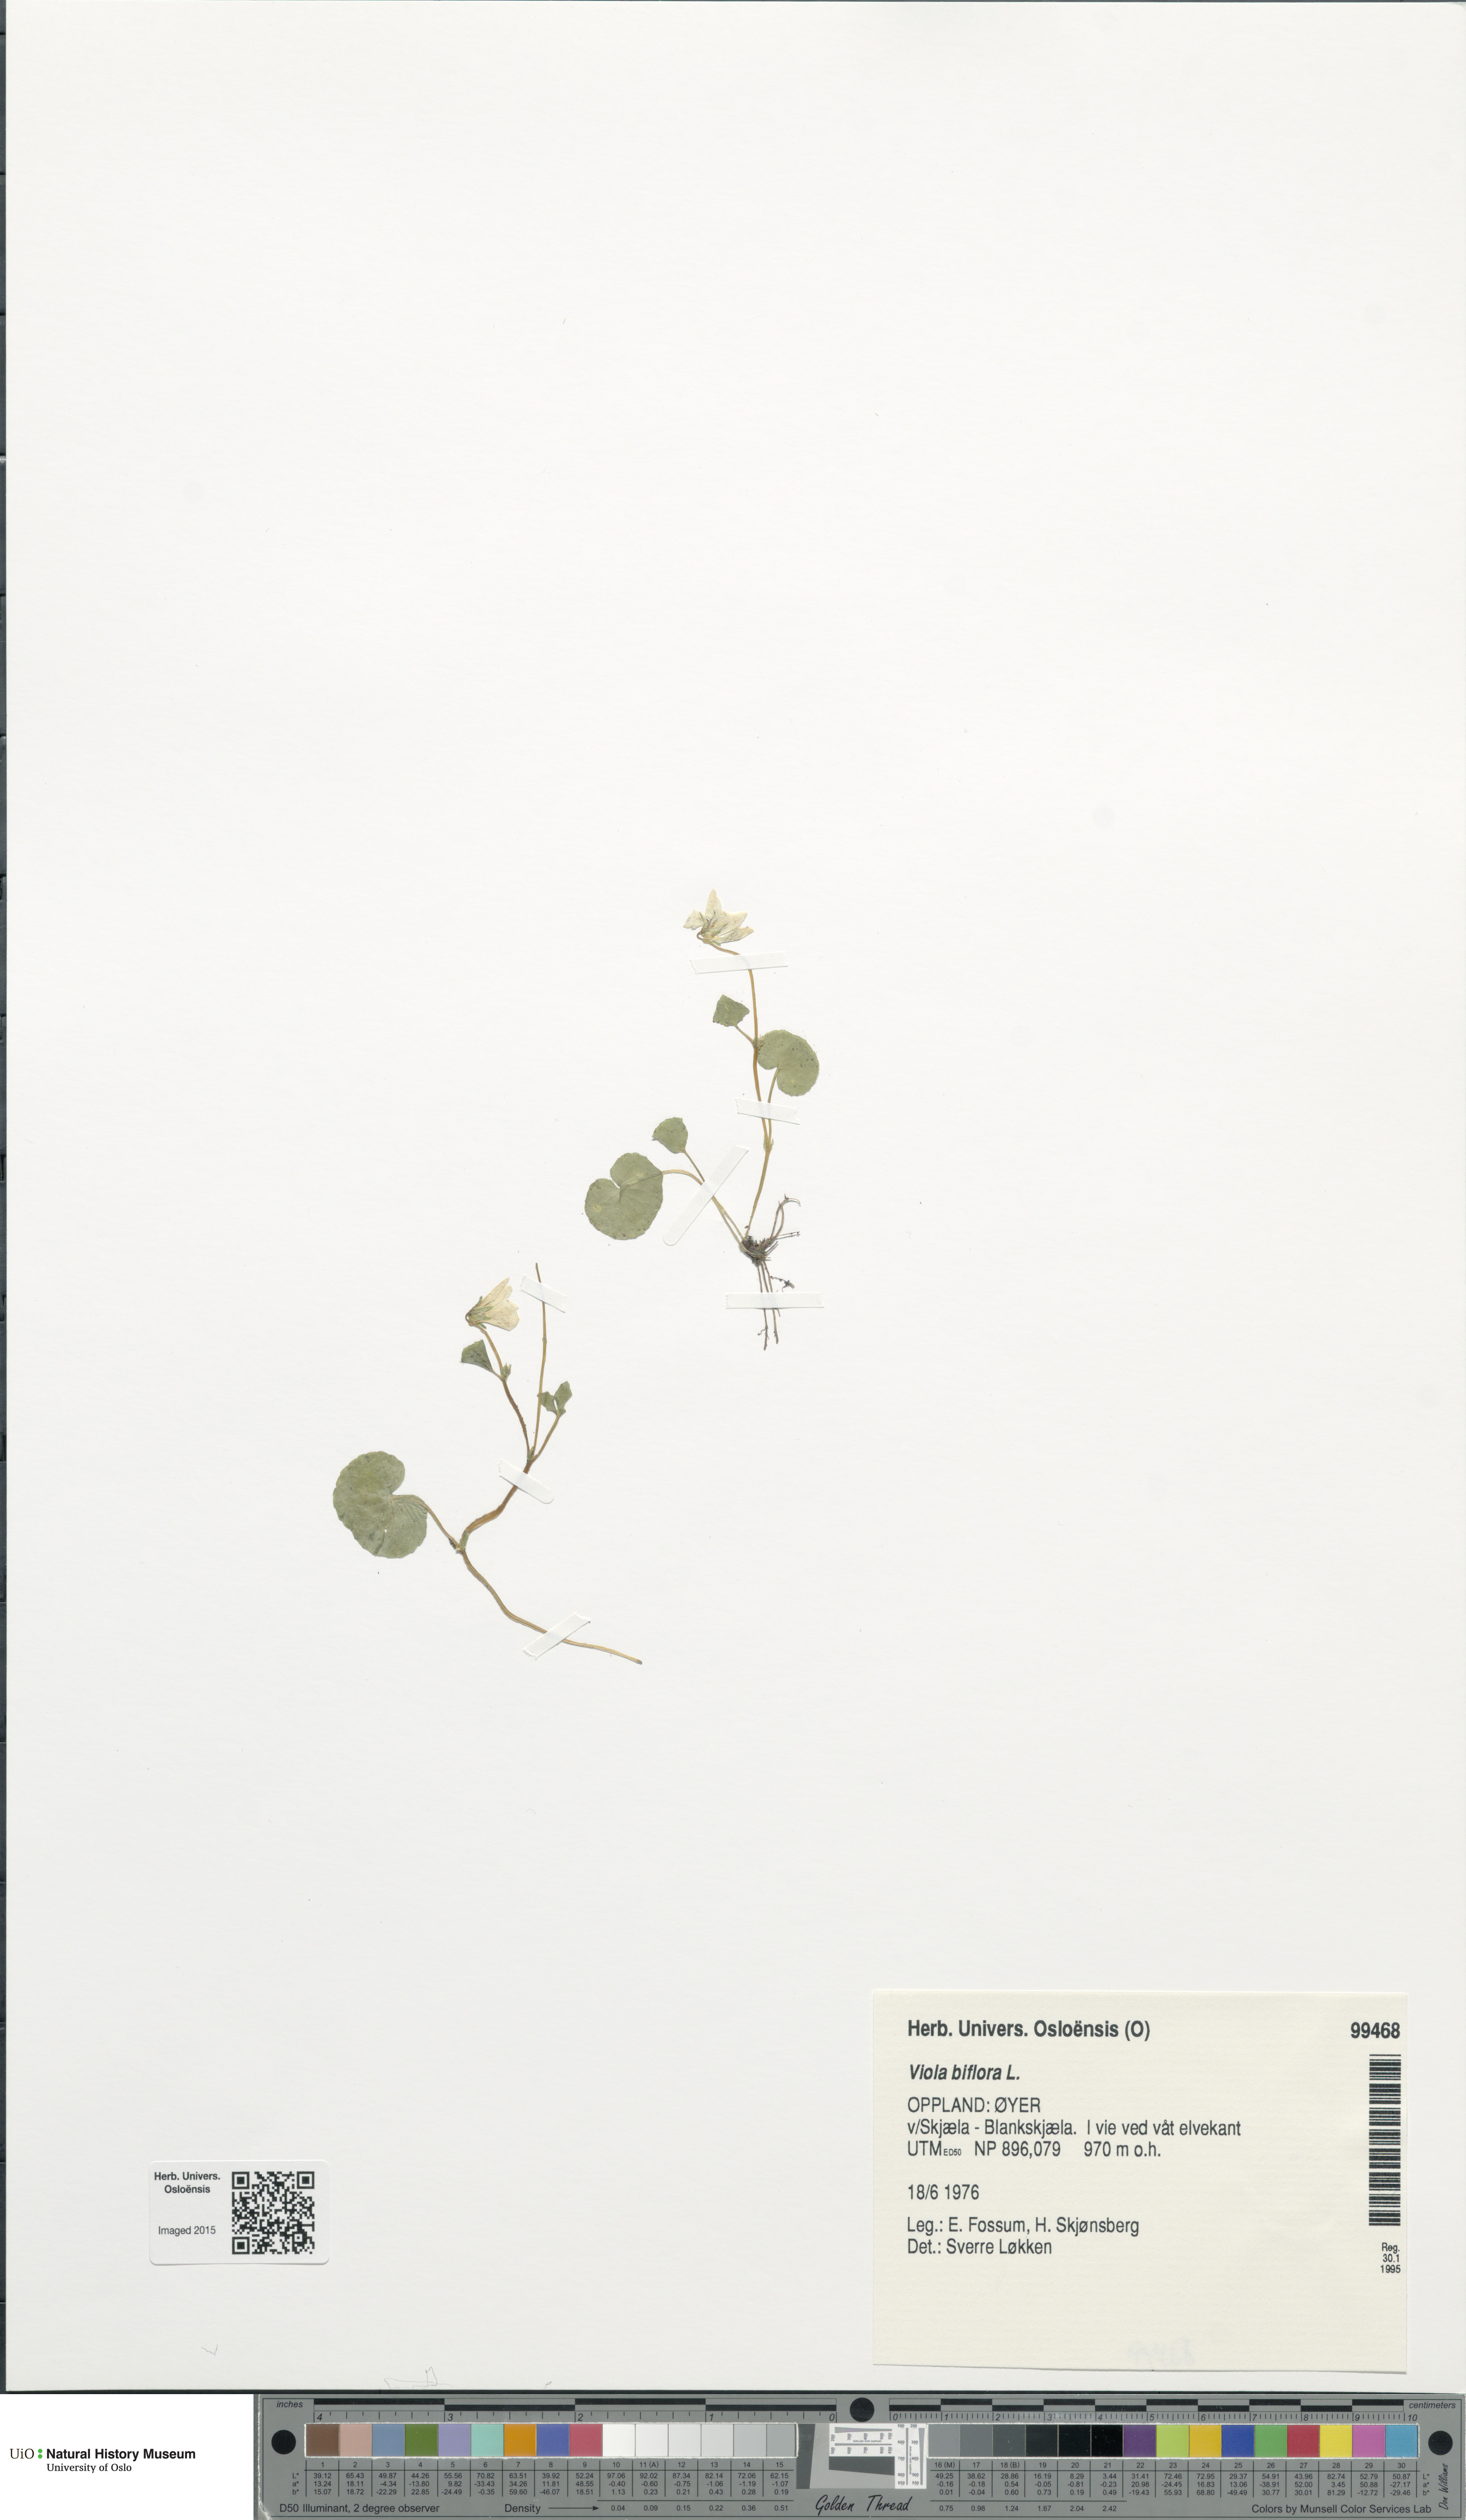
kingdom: Plantae
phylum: Tracheophyta
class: Magnoliopsida
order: Malpighiales
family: Violaceae
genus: Viola
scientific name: Viola biflora
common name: Alpine yellow violet
